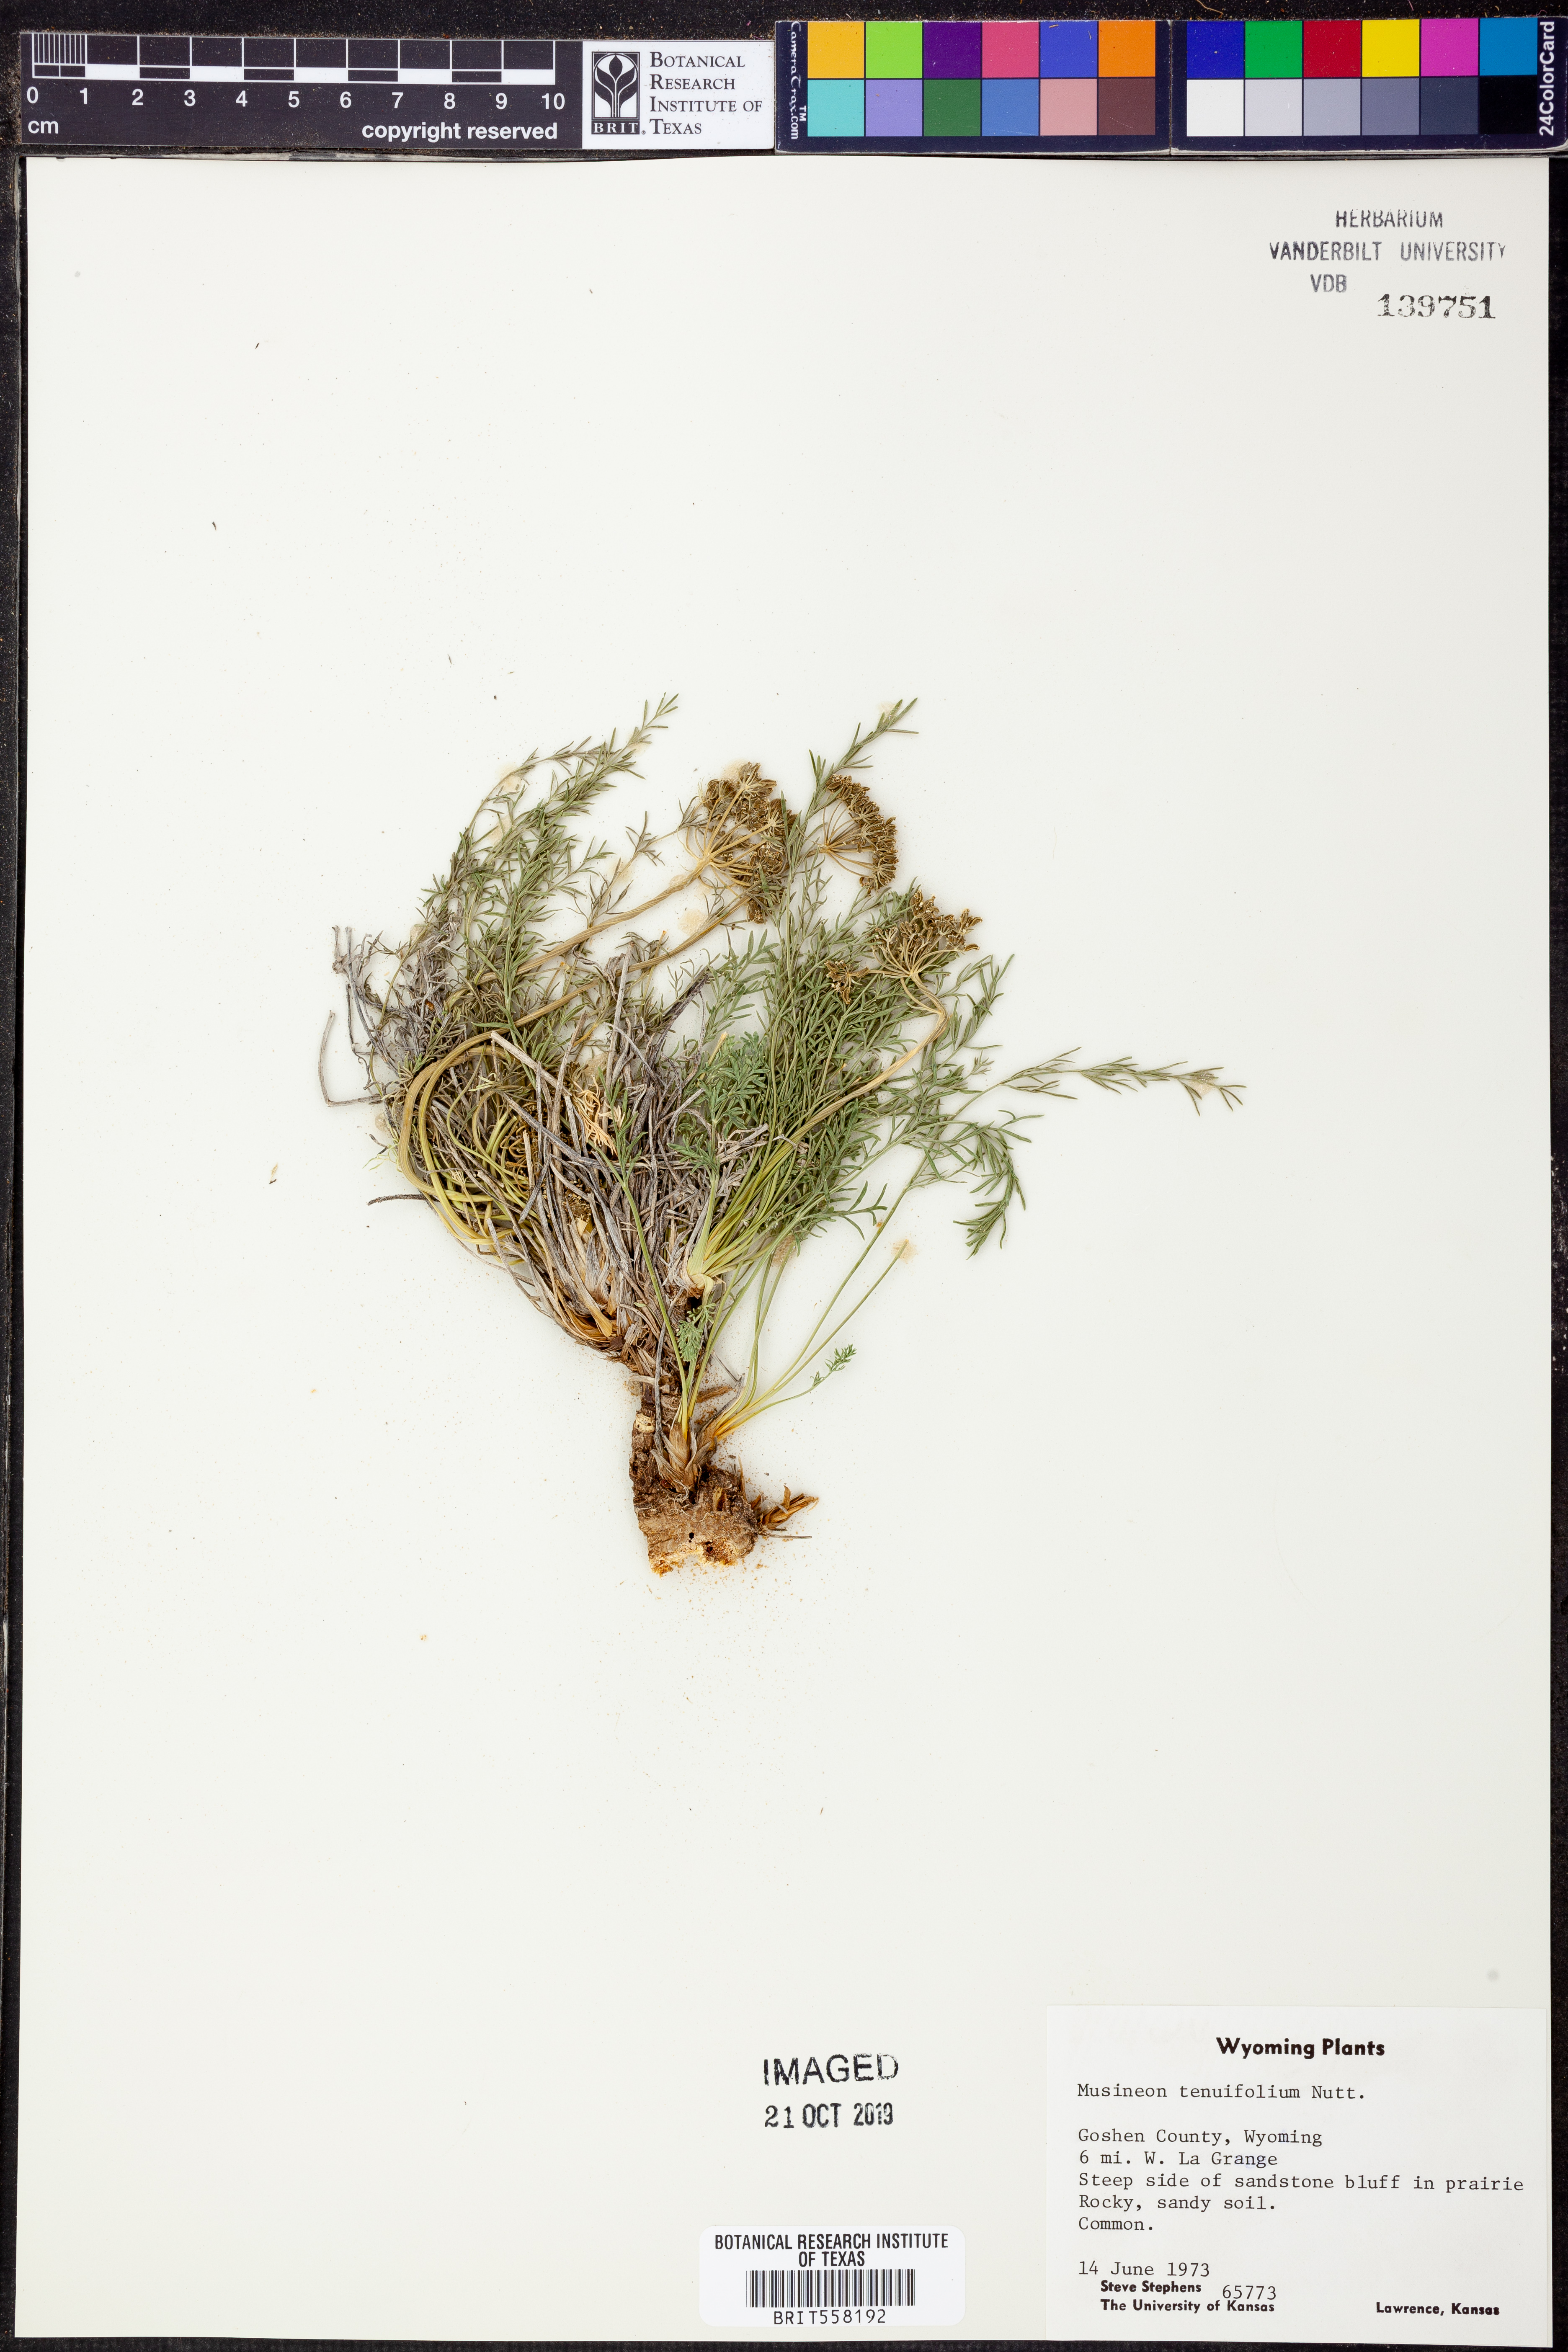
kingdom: Plantae
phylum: Tracheophyta
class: Magnoliopsida
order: Apiales
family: Apiaceae
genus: Musineon
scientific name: Musineon tenuifolium
